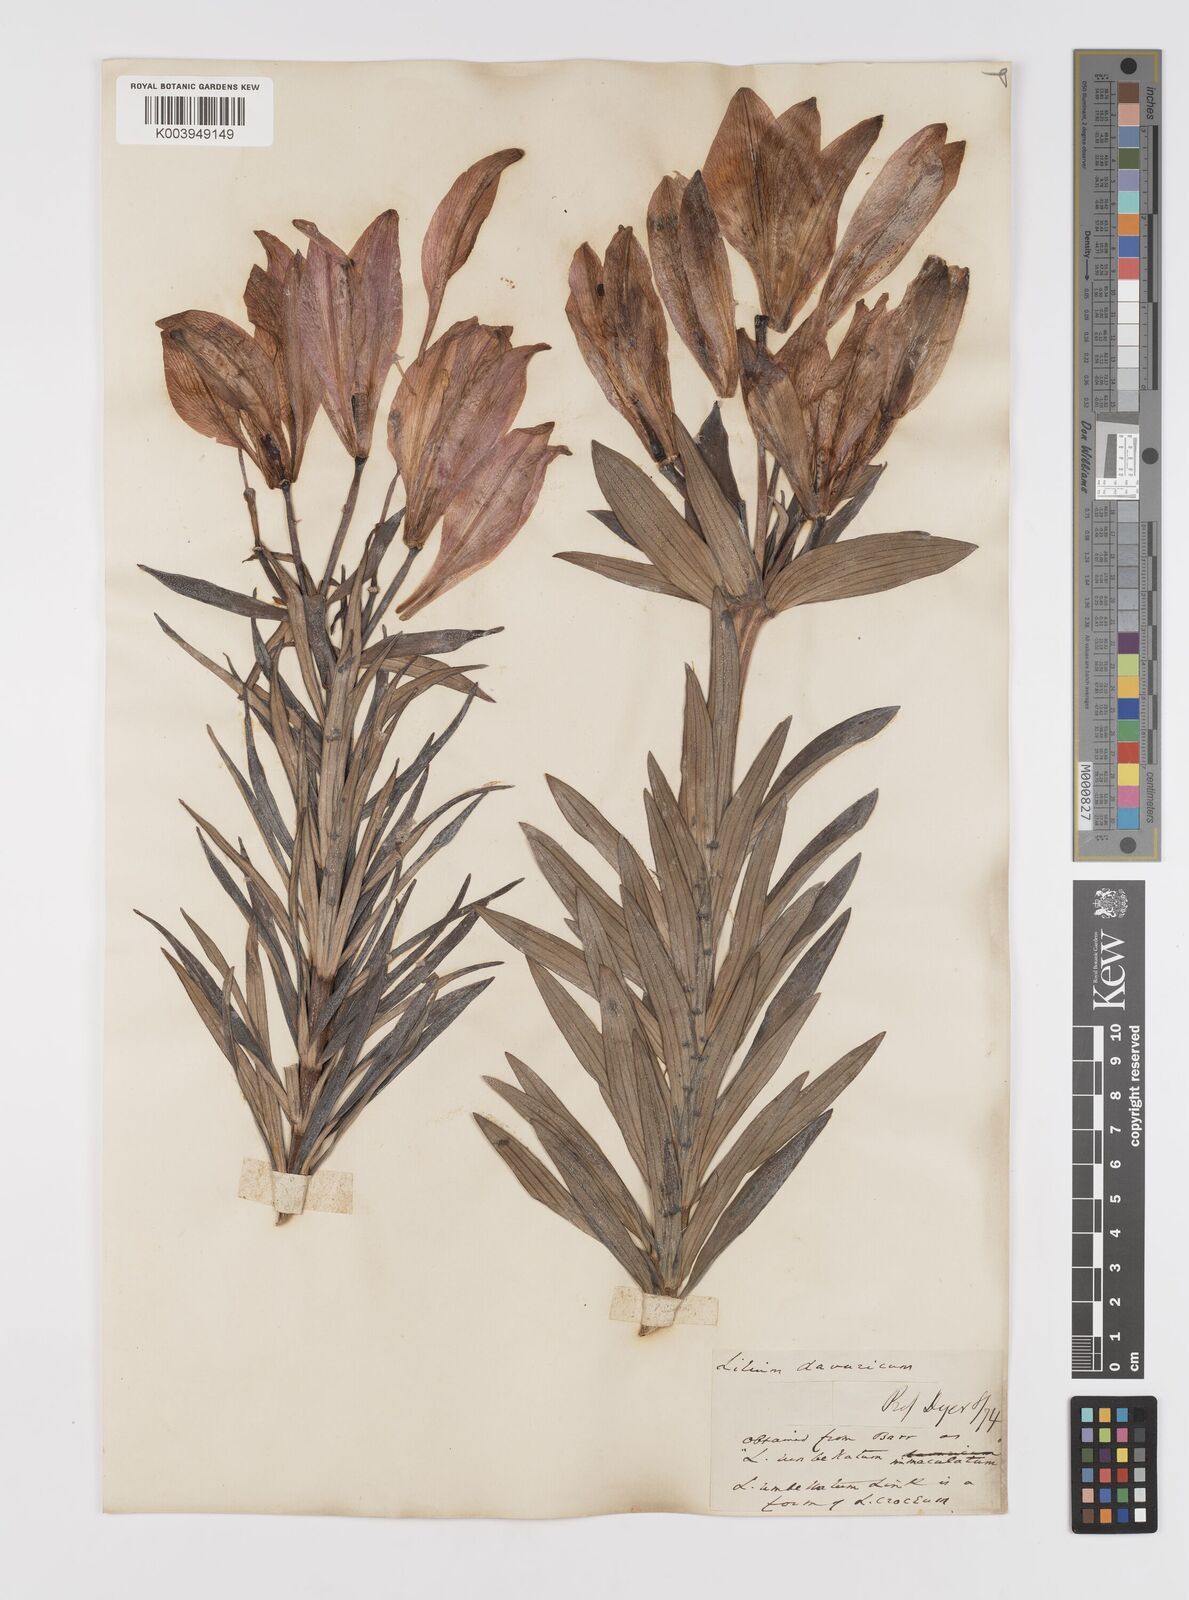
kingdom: Plantae
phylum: Tracheophyta
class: Liliopsida
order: Liliales
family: Liliaceae
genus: Lilium
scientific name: Lilium pensylvanicum
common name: Candlestick lily
